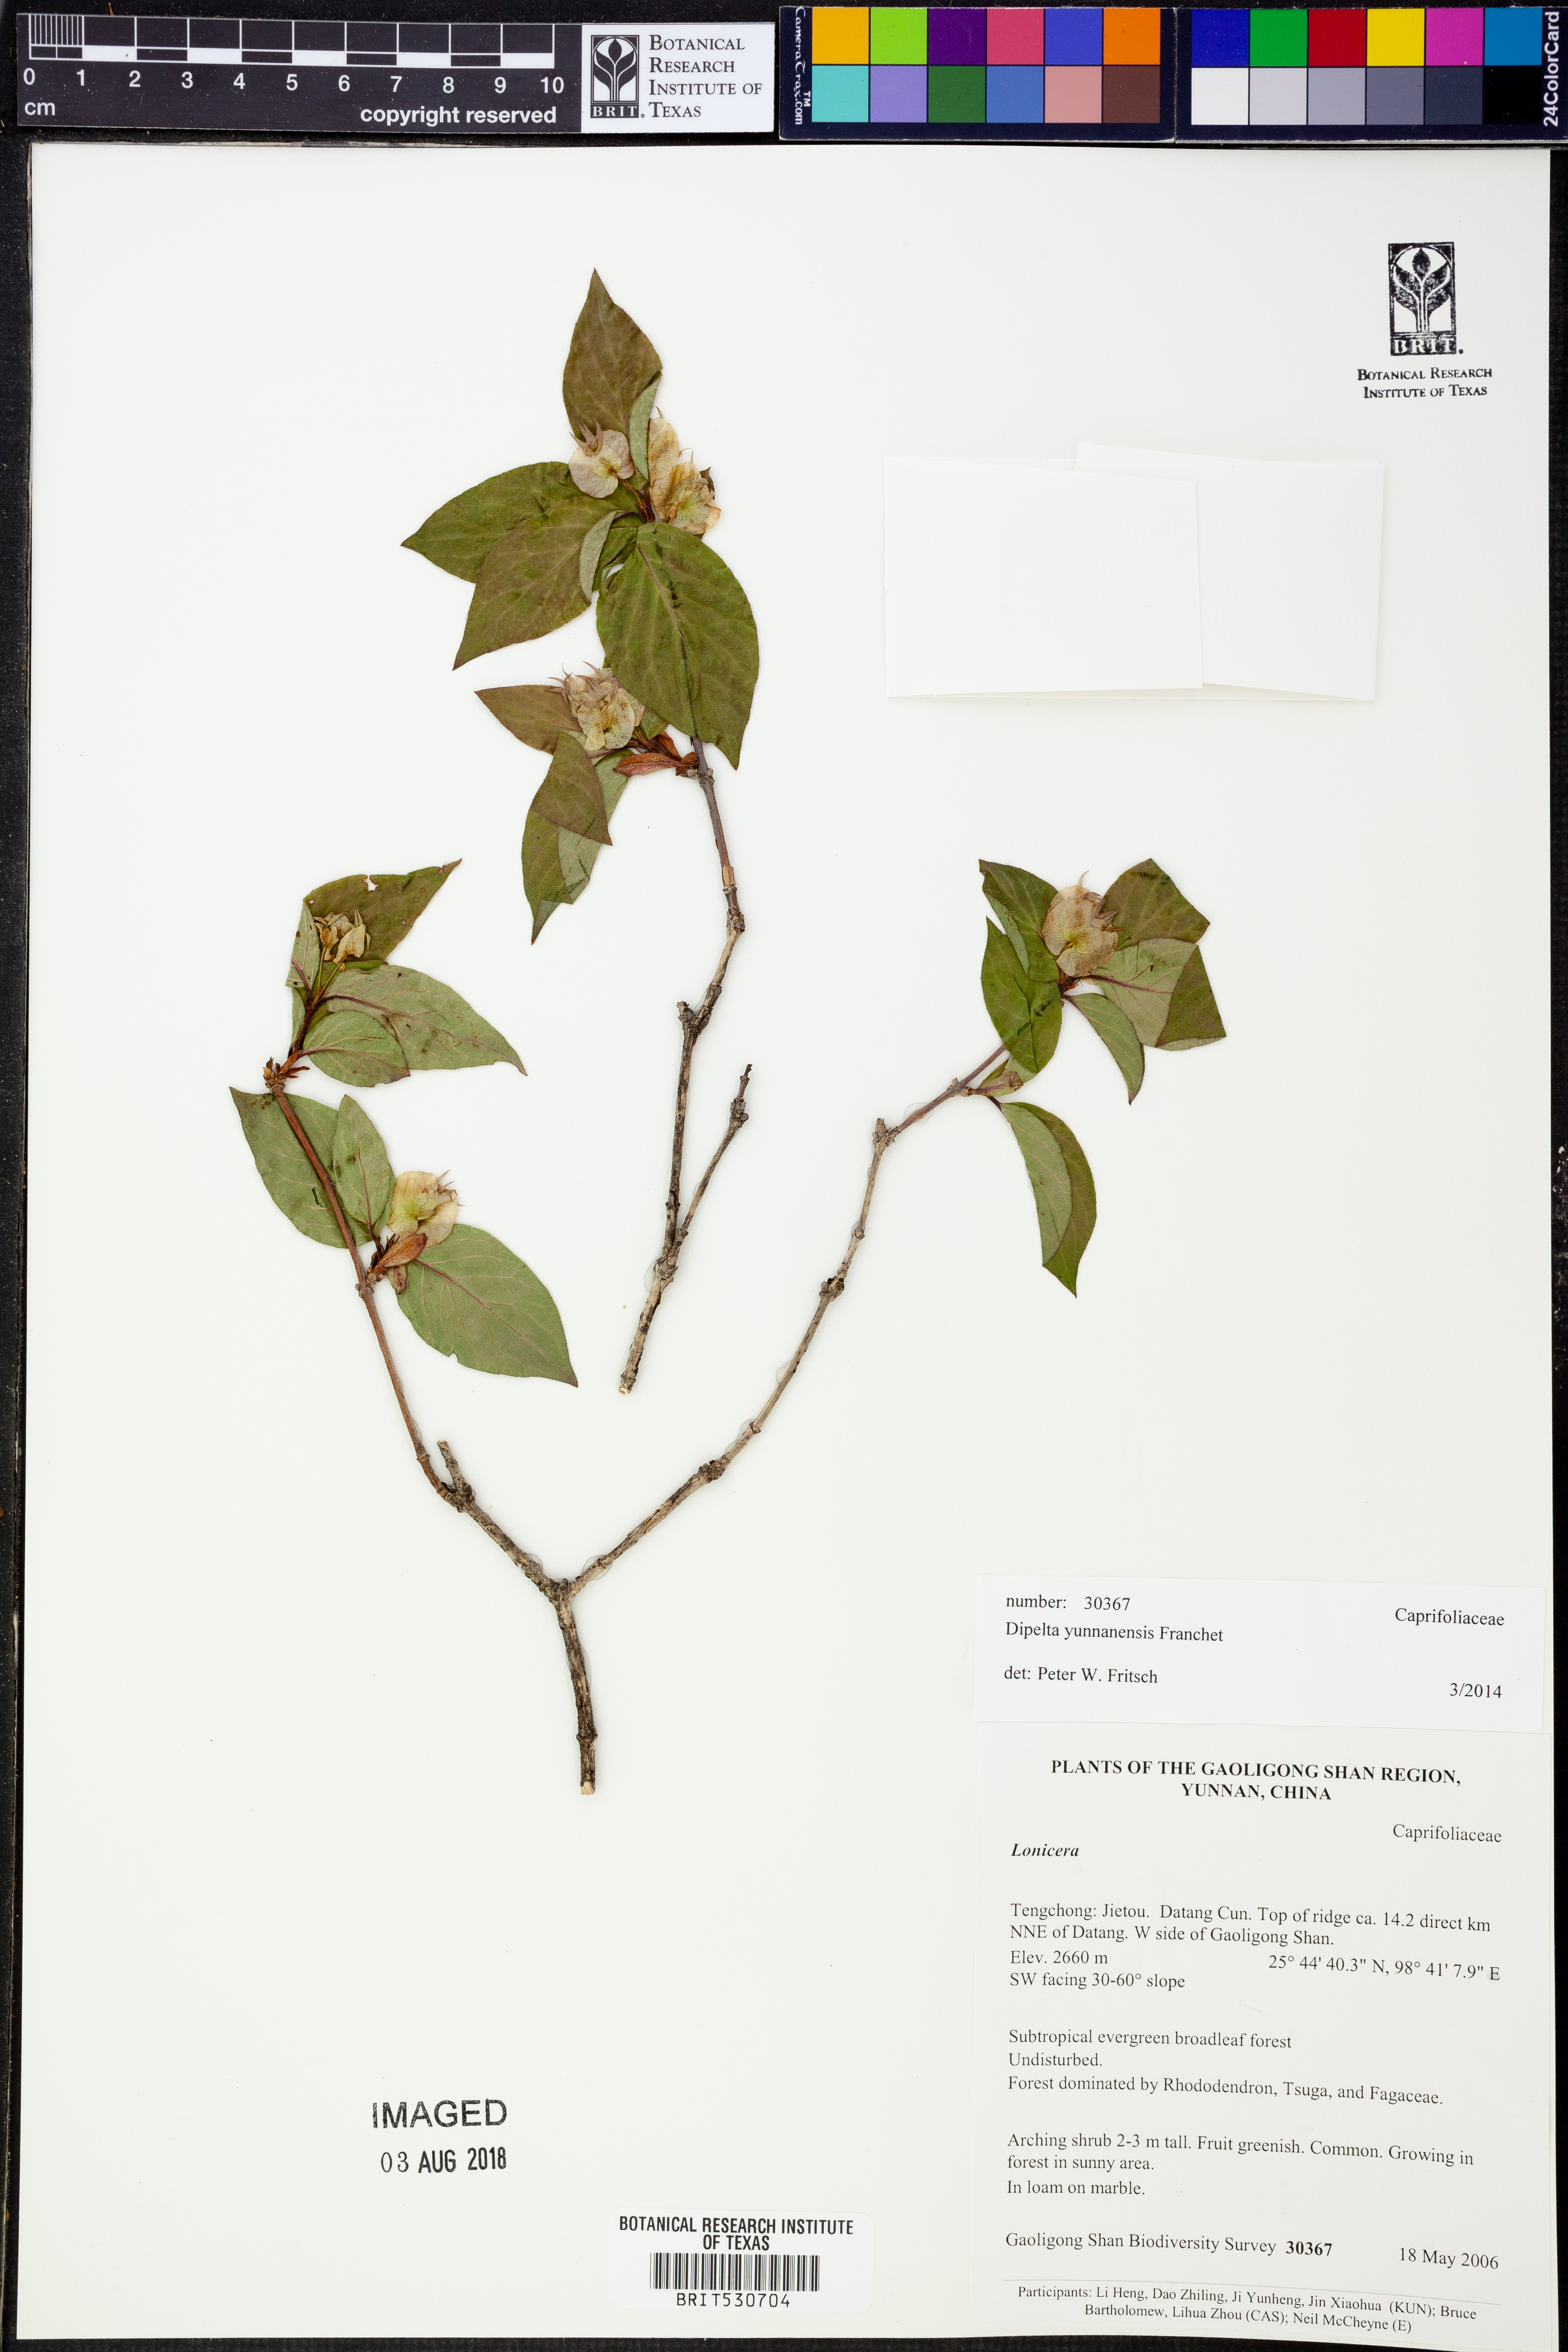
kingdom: Plantae
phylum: Tracheophyta
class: Magnoliopsida
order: Dipsacales
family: Caprifoliaceae
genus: Dipelta
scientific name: Dipelta yunnanensis
